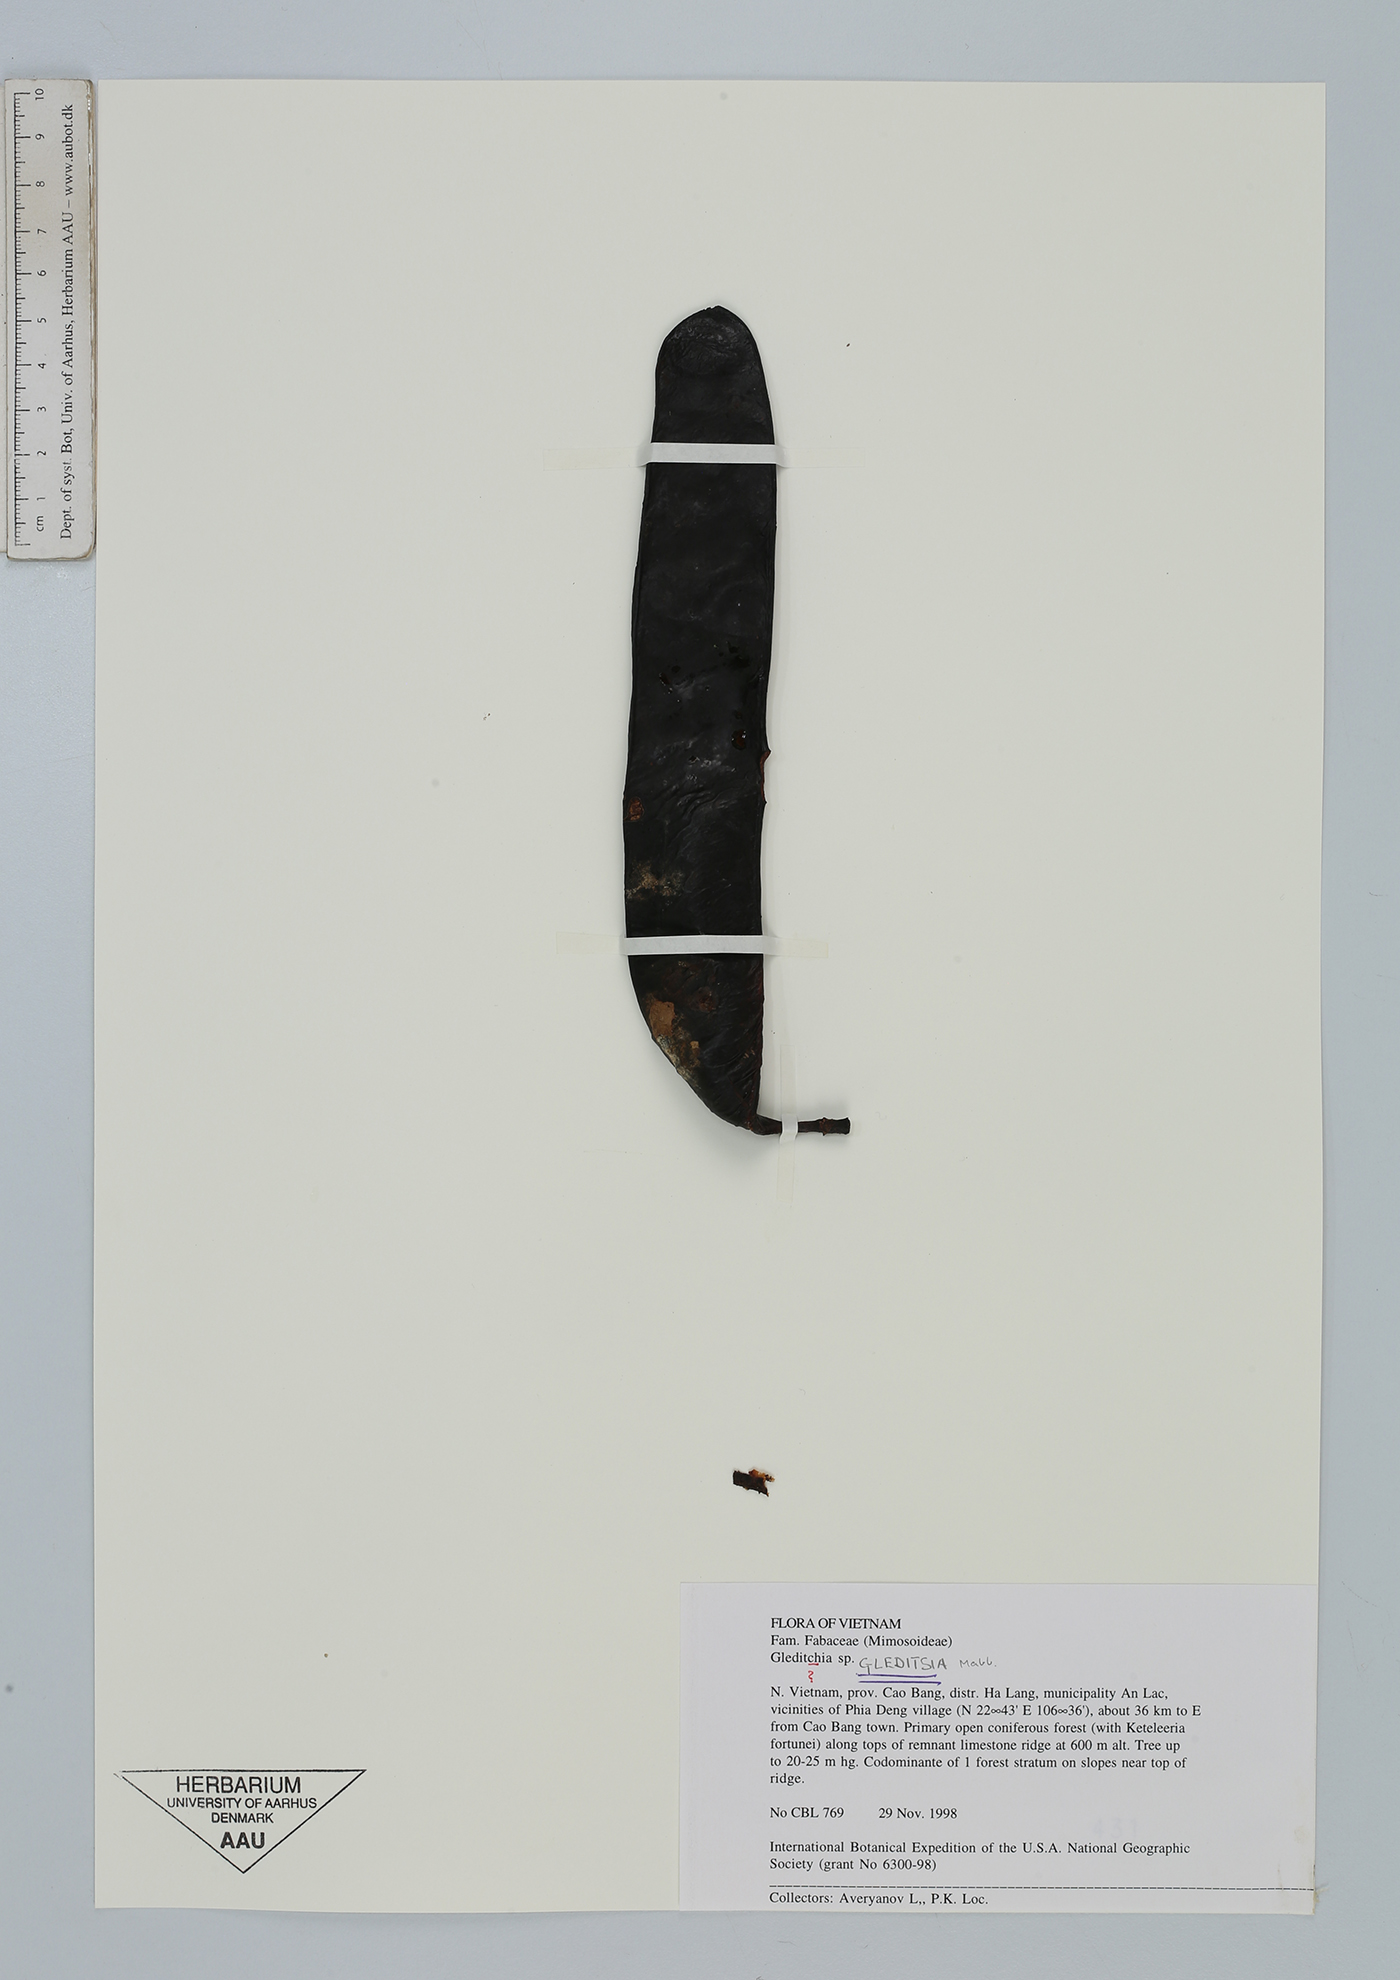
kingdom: Plantae
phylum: Tracheophyta
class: Magnoliopsida
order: Fabales
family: Fabaceae
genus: Gleditsia
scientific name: Gleditsia
